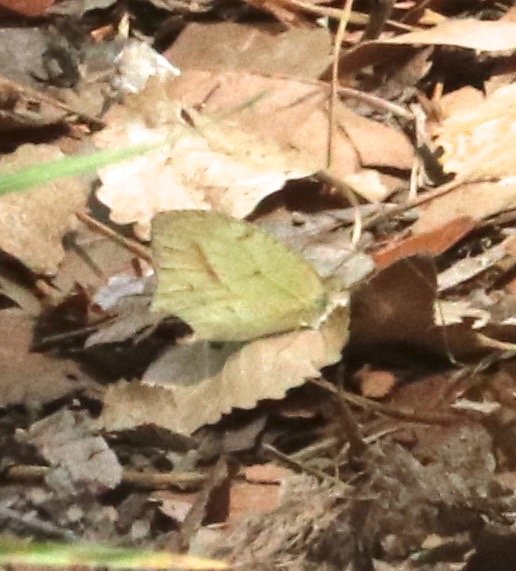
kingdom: Animalia
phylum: Arthropoda
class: Insecta
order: Lepidoptera
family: Pieridae
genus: Eurema
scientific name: Eurema mexicana
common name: Mexican Yellow
